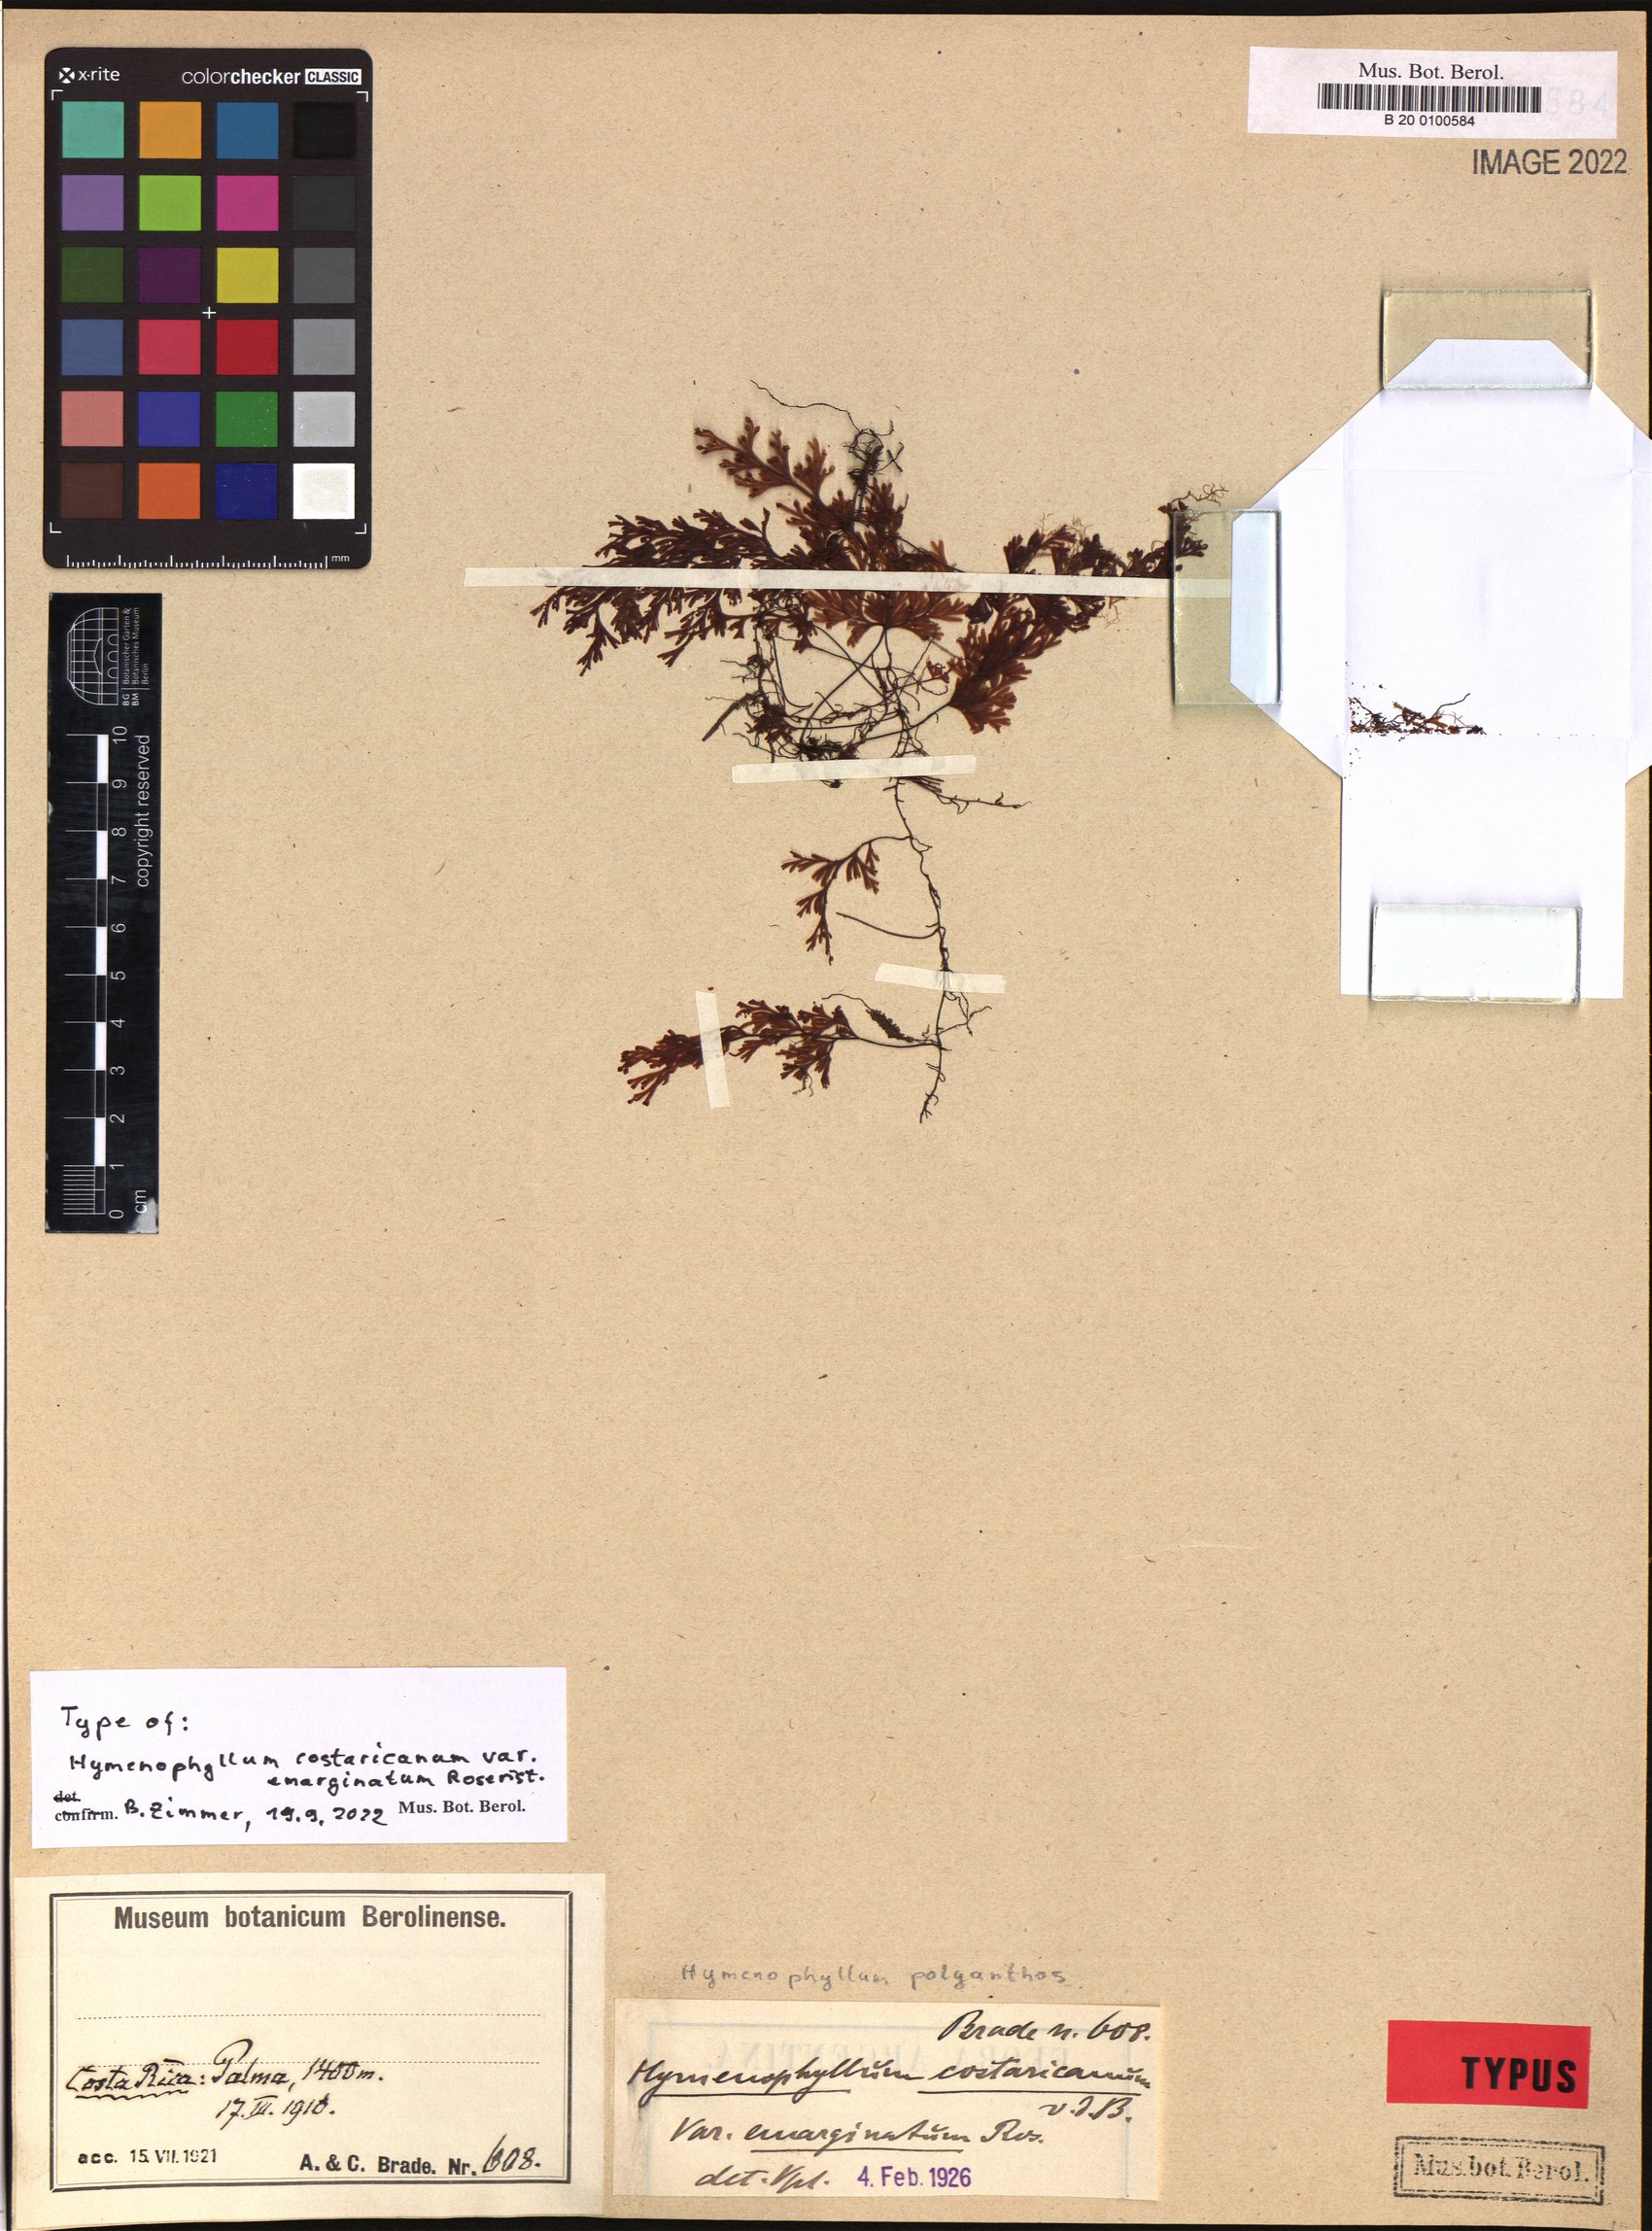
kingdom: Plantae
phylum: Tracheophyta
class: Polypodiopsida
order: Hymenophyllales
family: Hymenophyllaceae
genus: Hymenophyllum
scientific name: Hymenophyllum polyanthos
